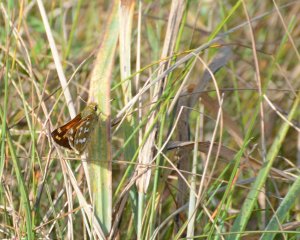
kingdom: Animalia
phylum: Arthropoda
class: Insecta
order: Lepidoptera
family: Hesperiidae
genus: Hesperia
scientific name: Hesperia comma
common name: Common Branded Skipper
